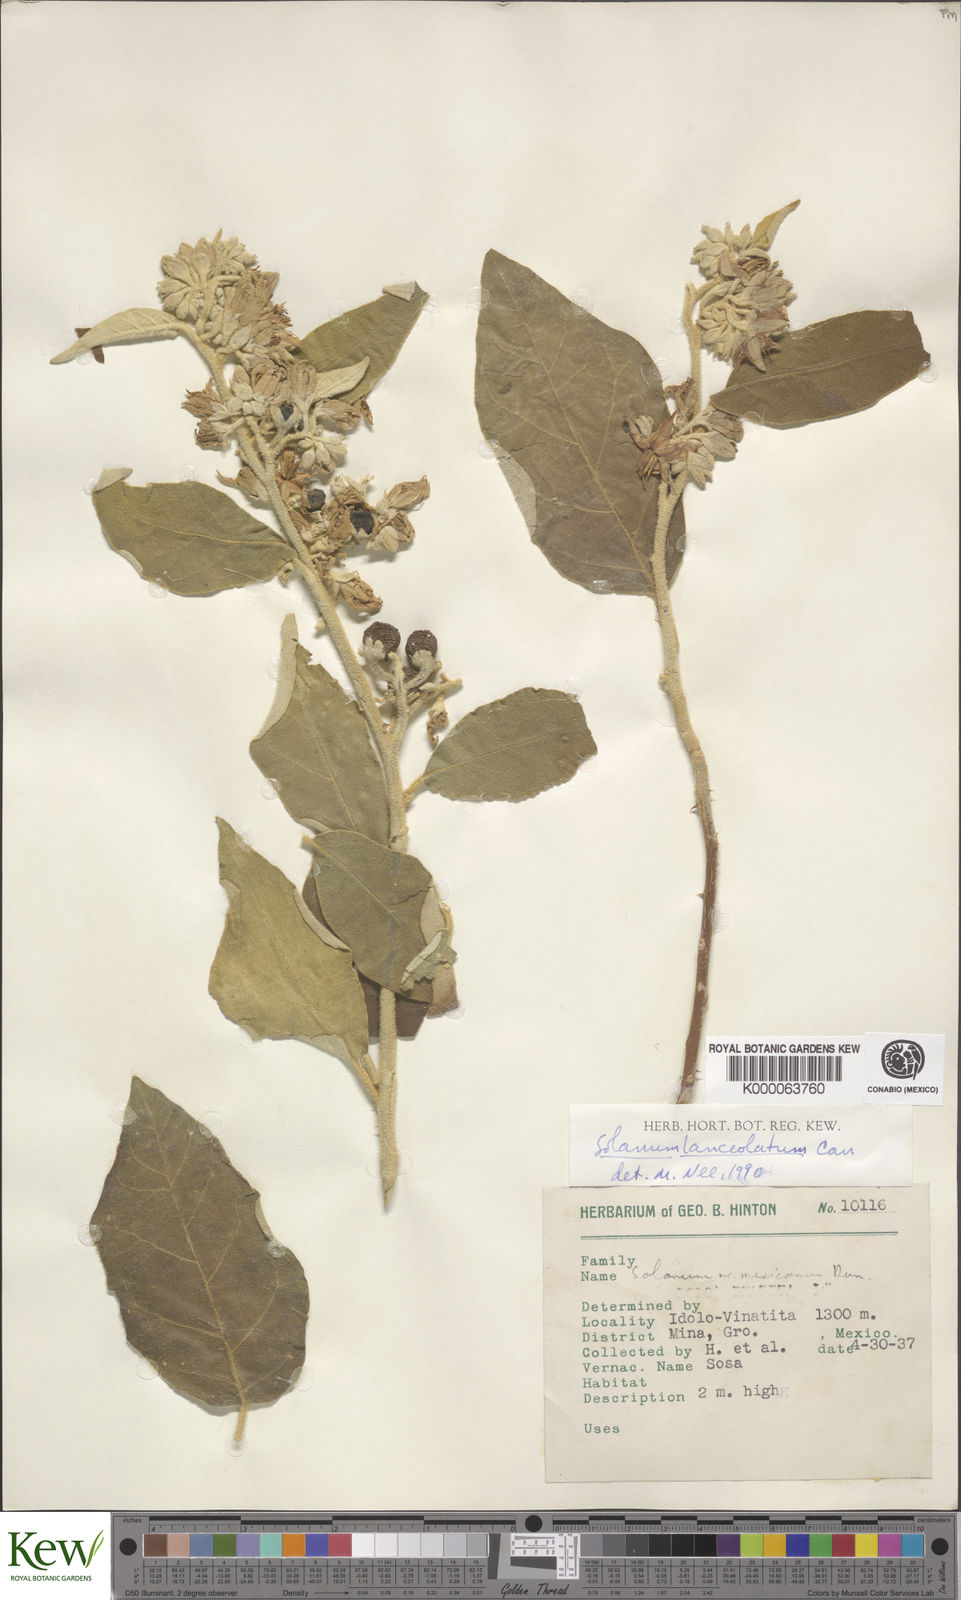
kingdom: Plantae
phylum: Tracheophyta
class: Magnoliopsida
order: Solanales
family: Solanaceae
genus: Solanum
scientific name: Solanum lanceolatum
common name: Orangeberry nightshade
